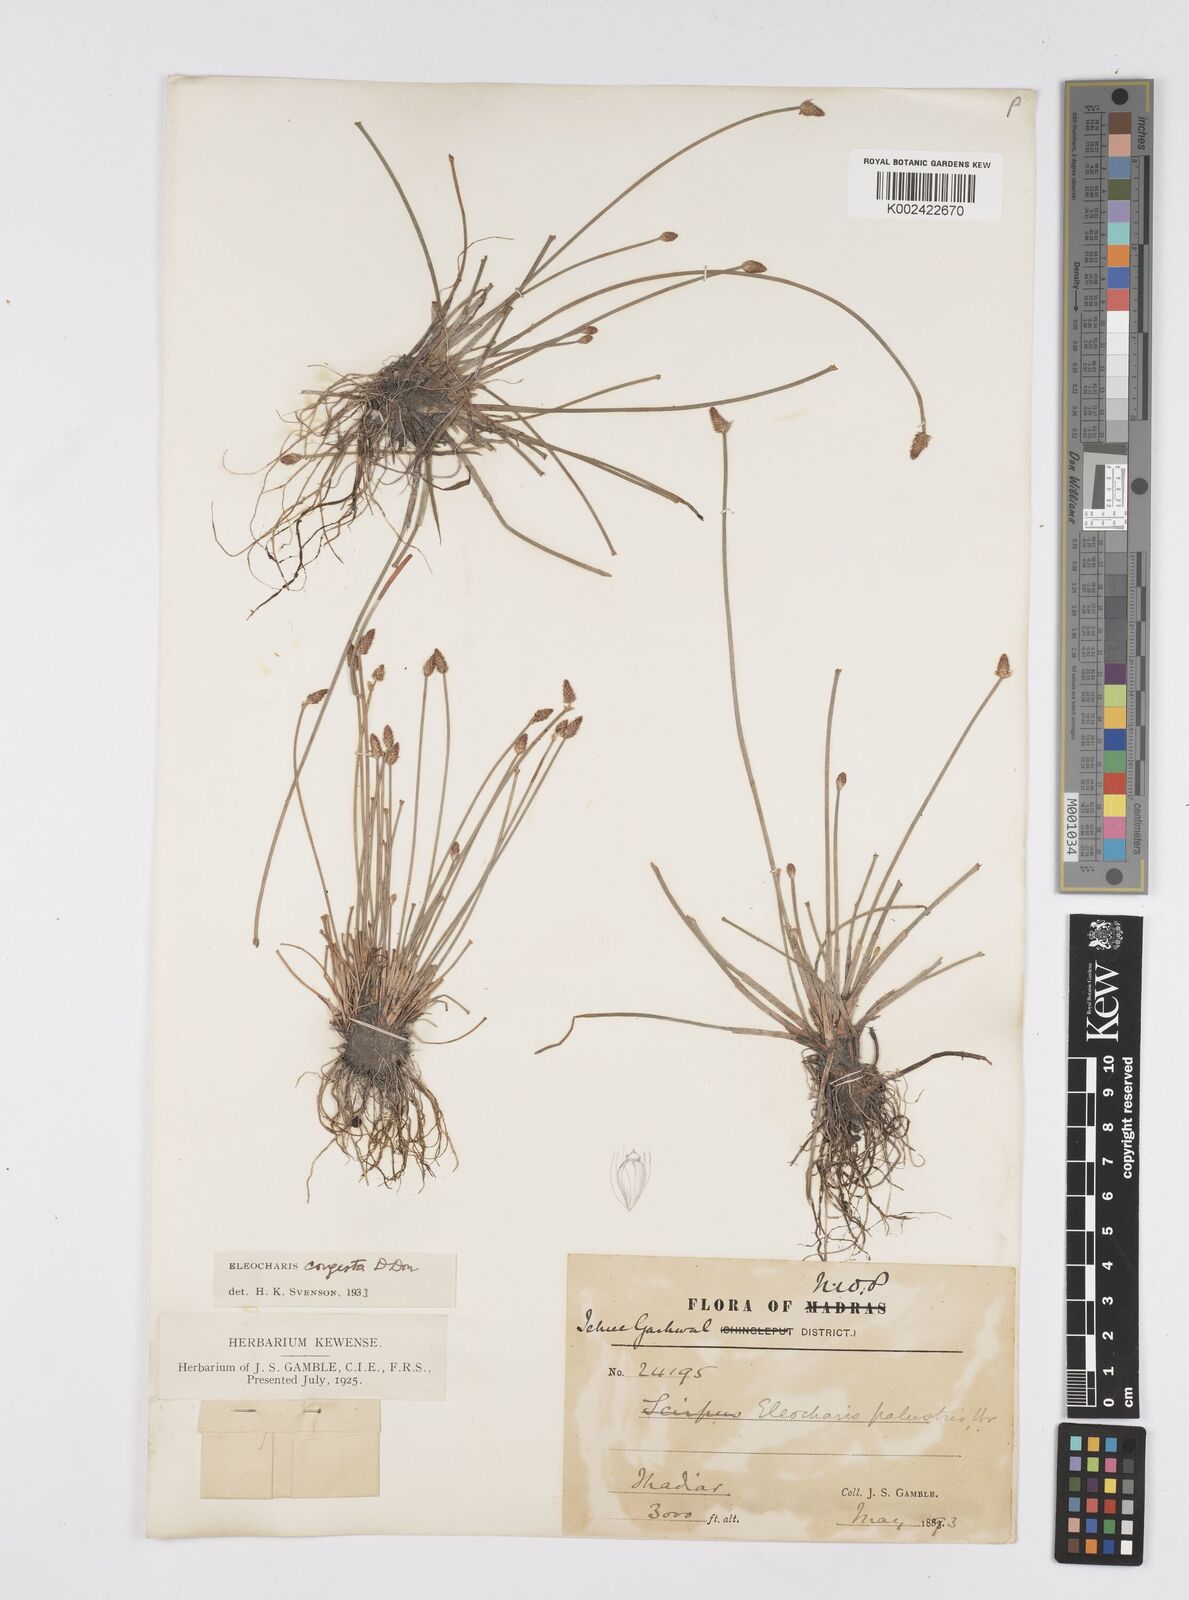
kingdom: Plantae
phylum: Tracheophyta
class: Liliopsida
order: Poales
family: Cyperaceae
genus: Eleocharis
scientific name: Eleocharis congesta
